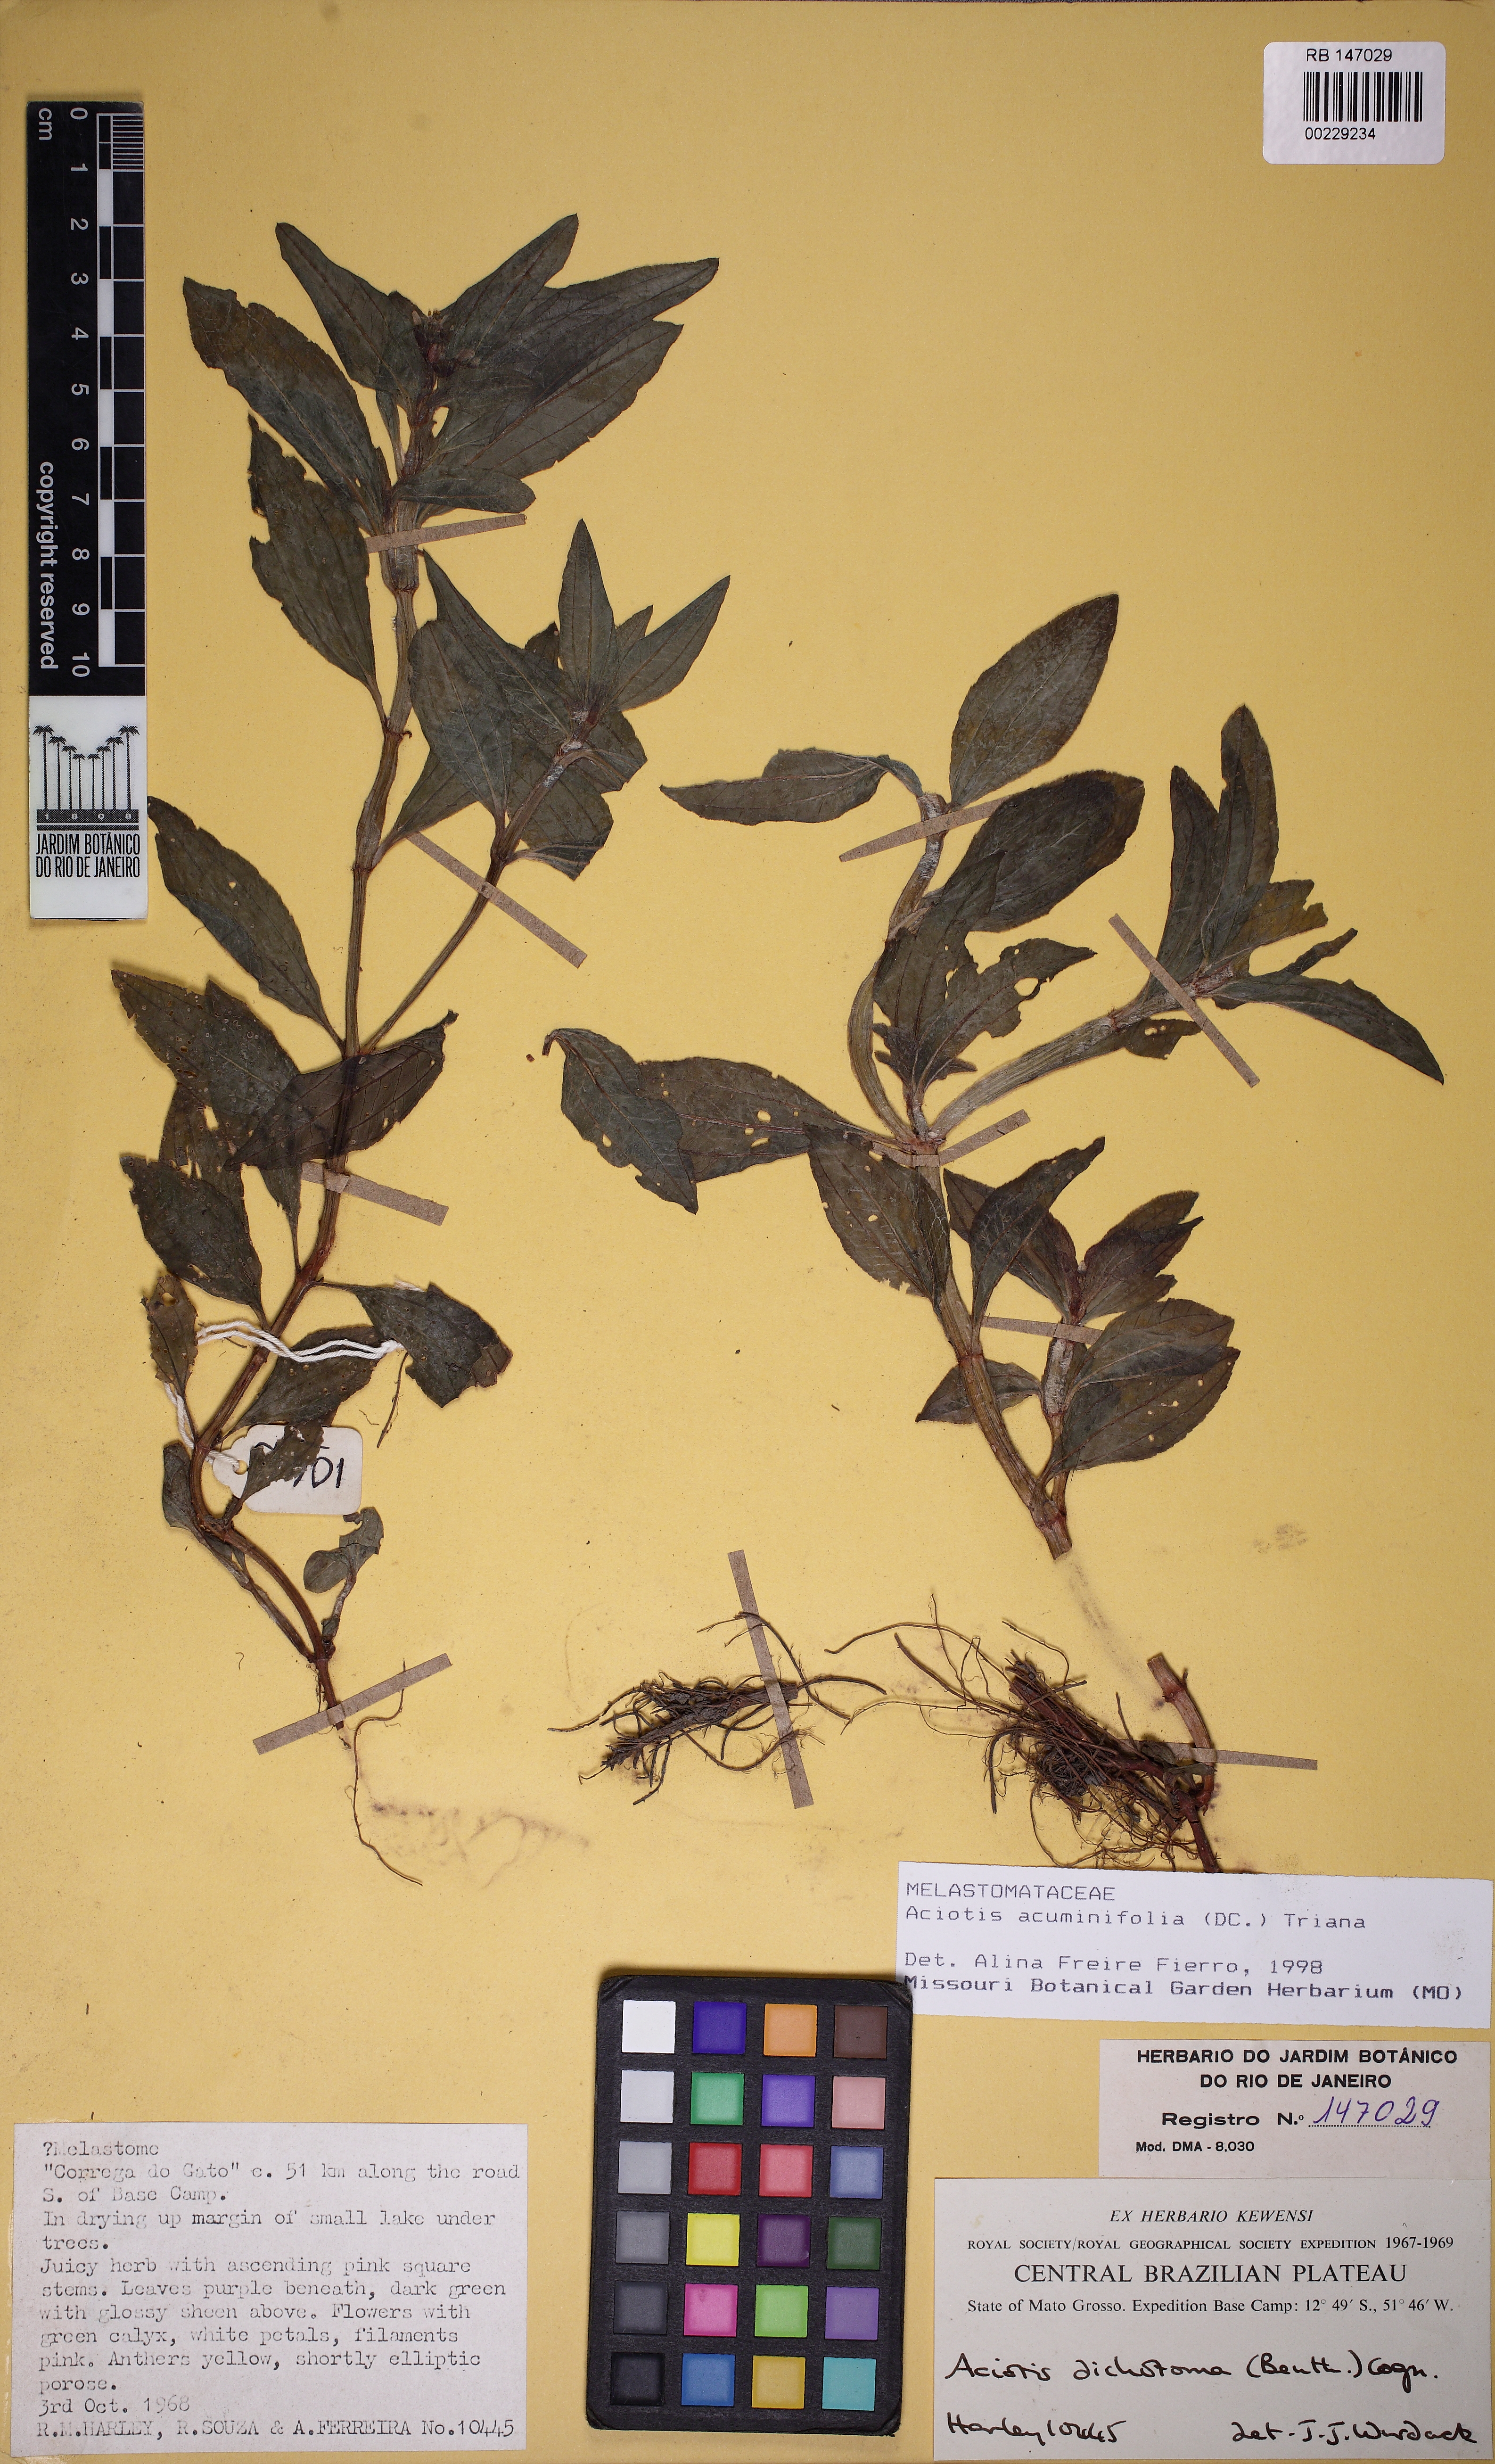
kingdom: Plantae
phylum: Tracheophyta
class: Magnoliopsida
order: Myrtales
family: Melastomataceae
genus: Aciotis
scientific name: Aciotis acuminifolia
